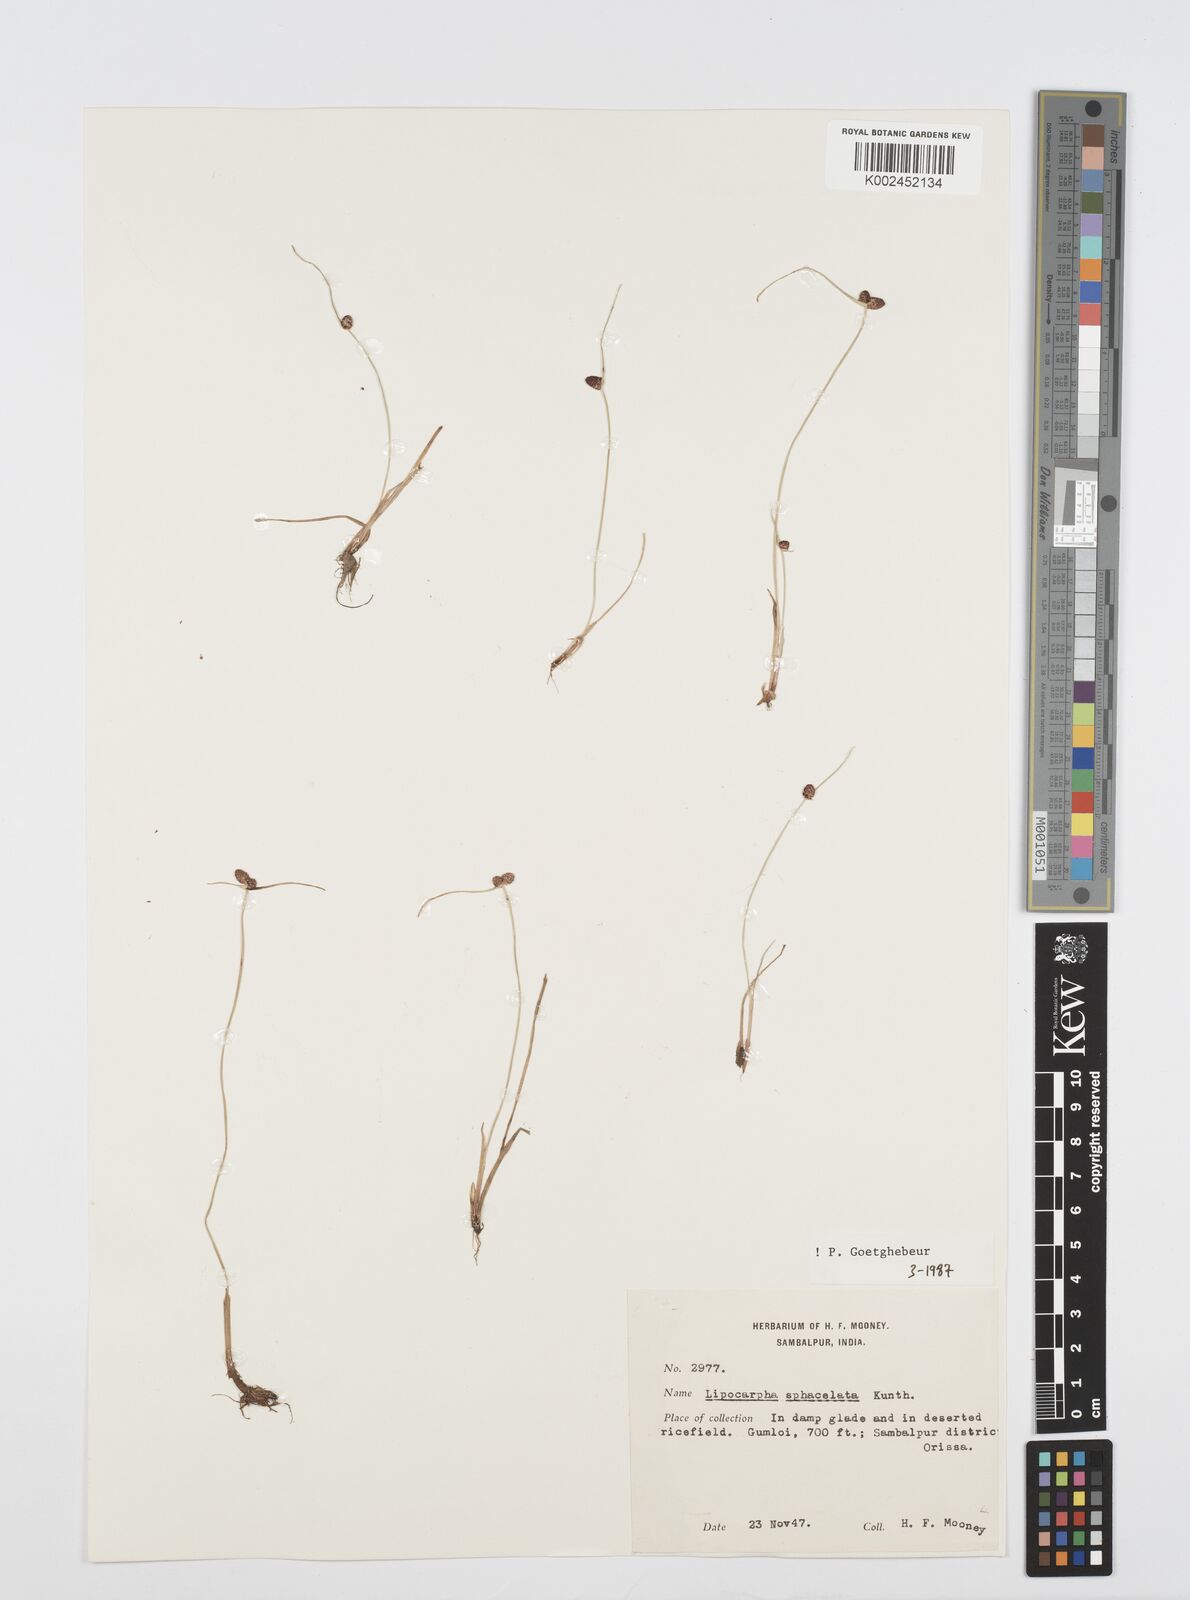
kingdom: Plantae
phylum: Tracheophyta
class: Liliopsida
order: Poales
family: Cyperaceae
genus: Cyperus
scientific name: Cyperus sphacelatus
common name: Roadside flatsedge
